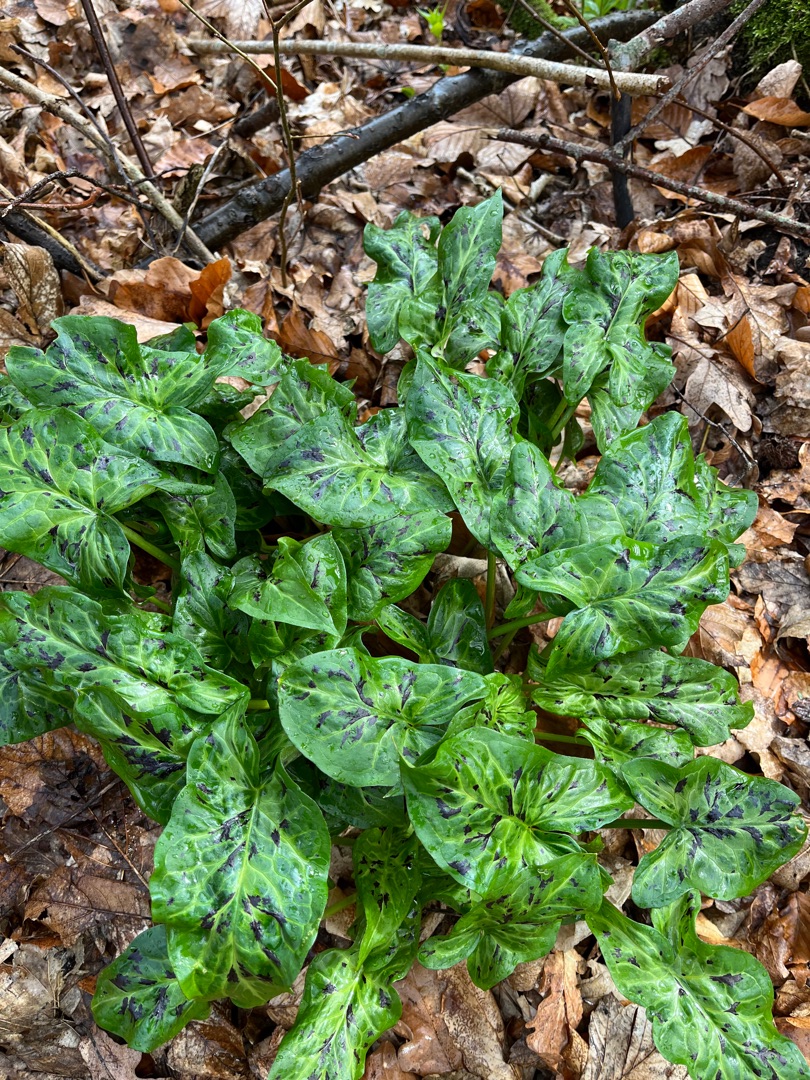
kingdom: Plantae
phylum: Tracheophyta
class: Liliopsida
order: Alismatales
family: Araceae
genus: Arum
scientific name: Arum maculatum
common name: Plettet arum
